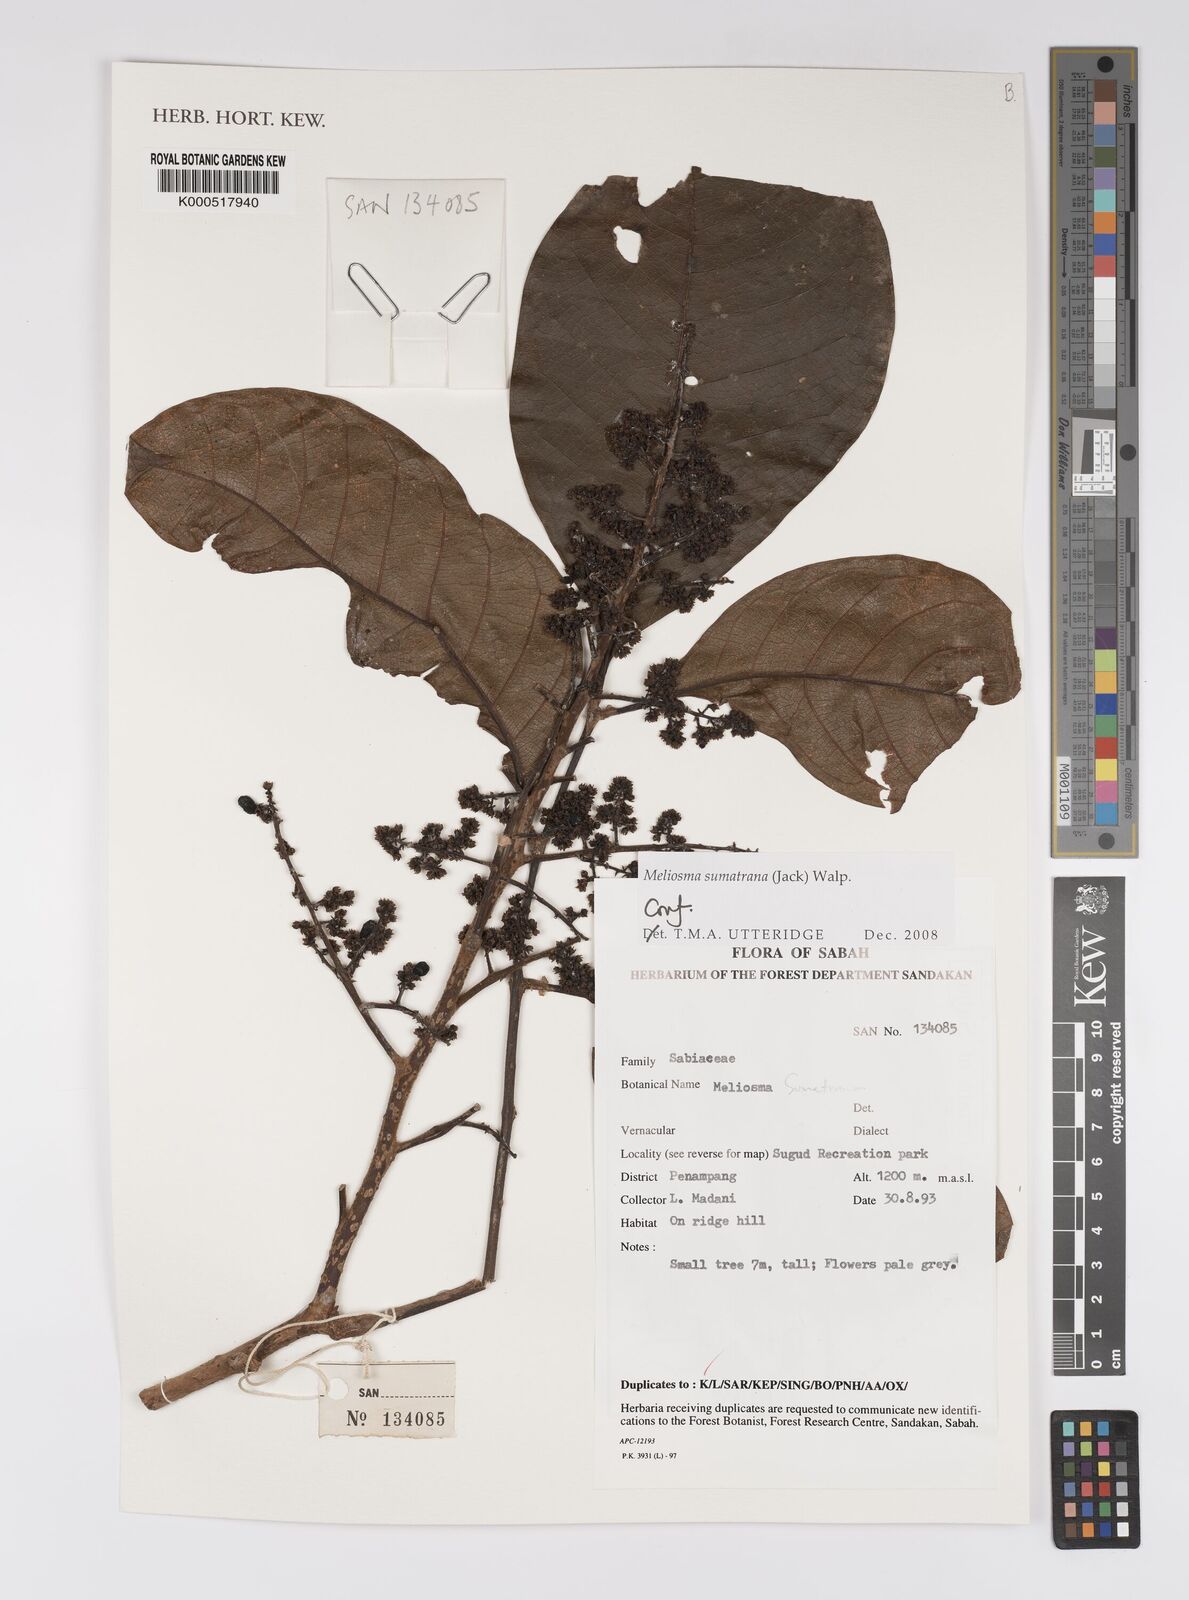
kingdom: Plantae
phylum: Tracheophyta
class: Magnoliopsida
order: Proteales
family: Sabiaceae
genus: Meliosma
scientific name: Meliosma sumatrana
